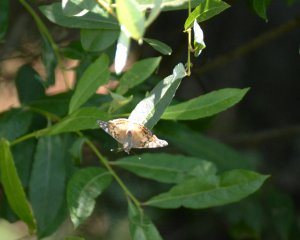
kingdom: Animalia
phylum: Arthropoda
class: Insecta
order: Lepidoptera
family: Nymphalidae
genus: Vanessa
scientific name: Vanessa virginiensis
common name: American Lady
